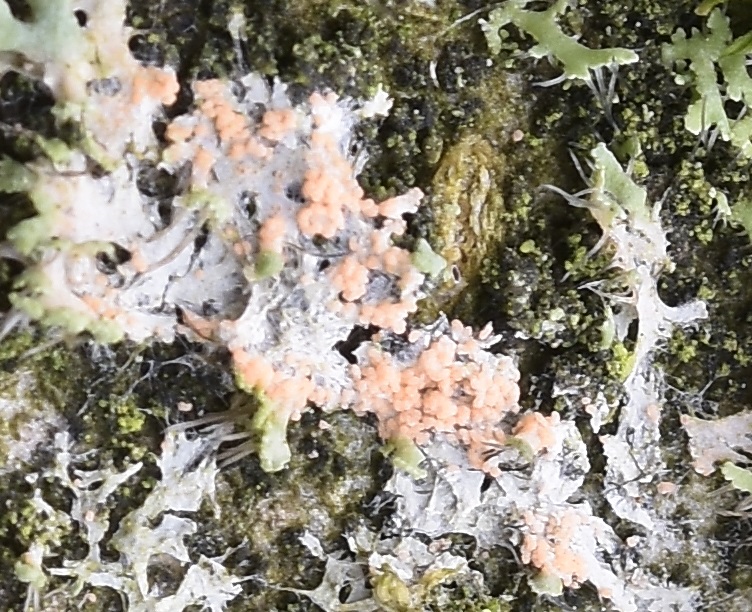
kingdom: Fungi
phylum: Basidiomycota
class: Agaricomycetes
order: Corticiales
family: Corticiaceae
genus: Erythricium
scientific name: Erythricium aurantiacum
